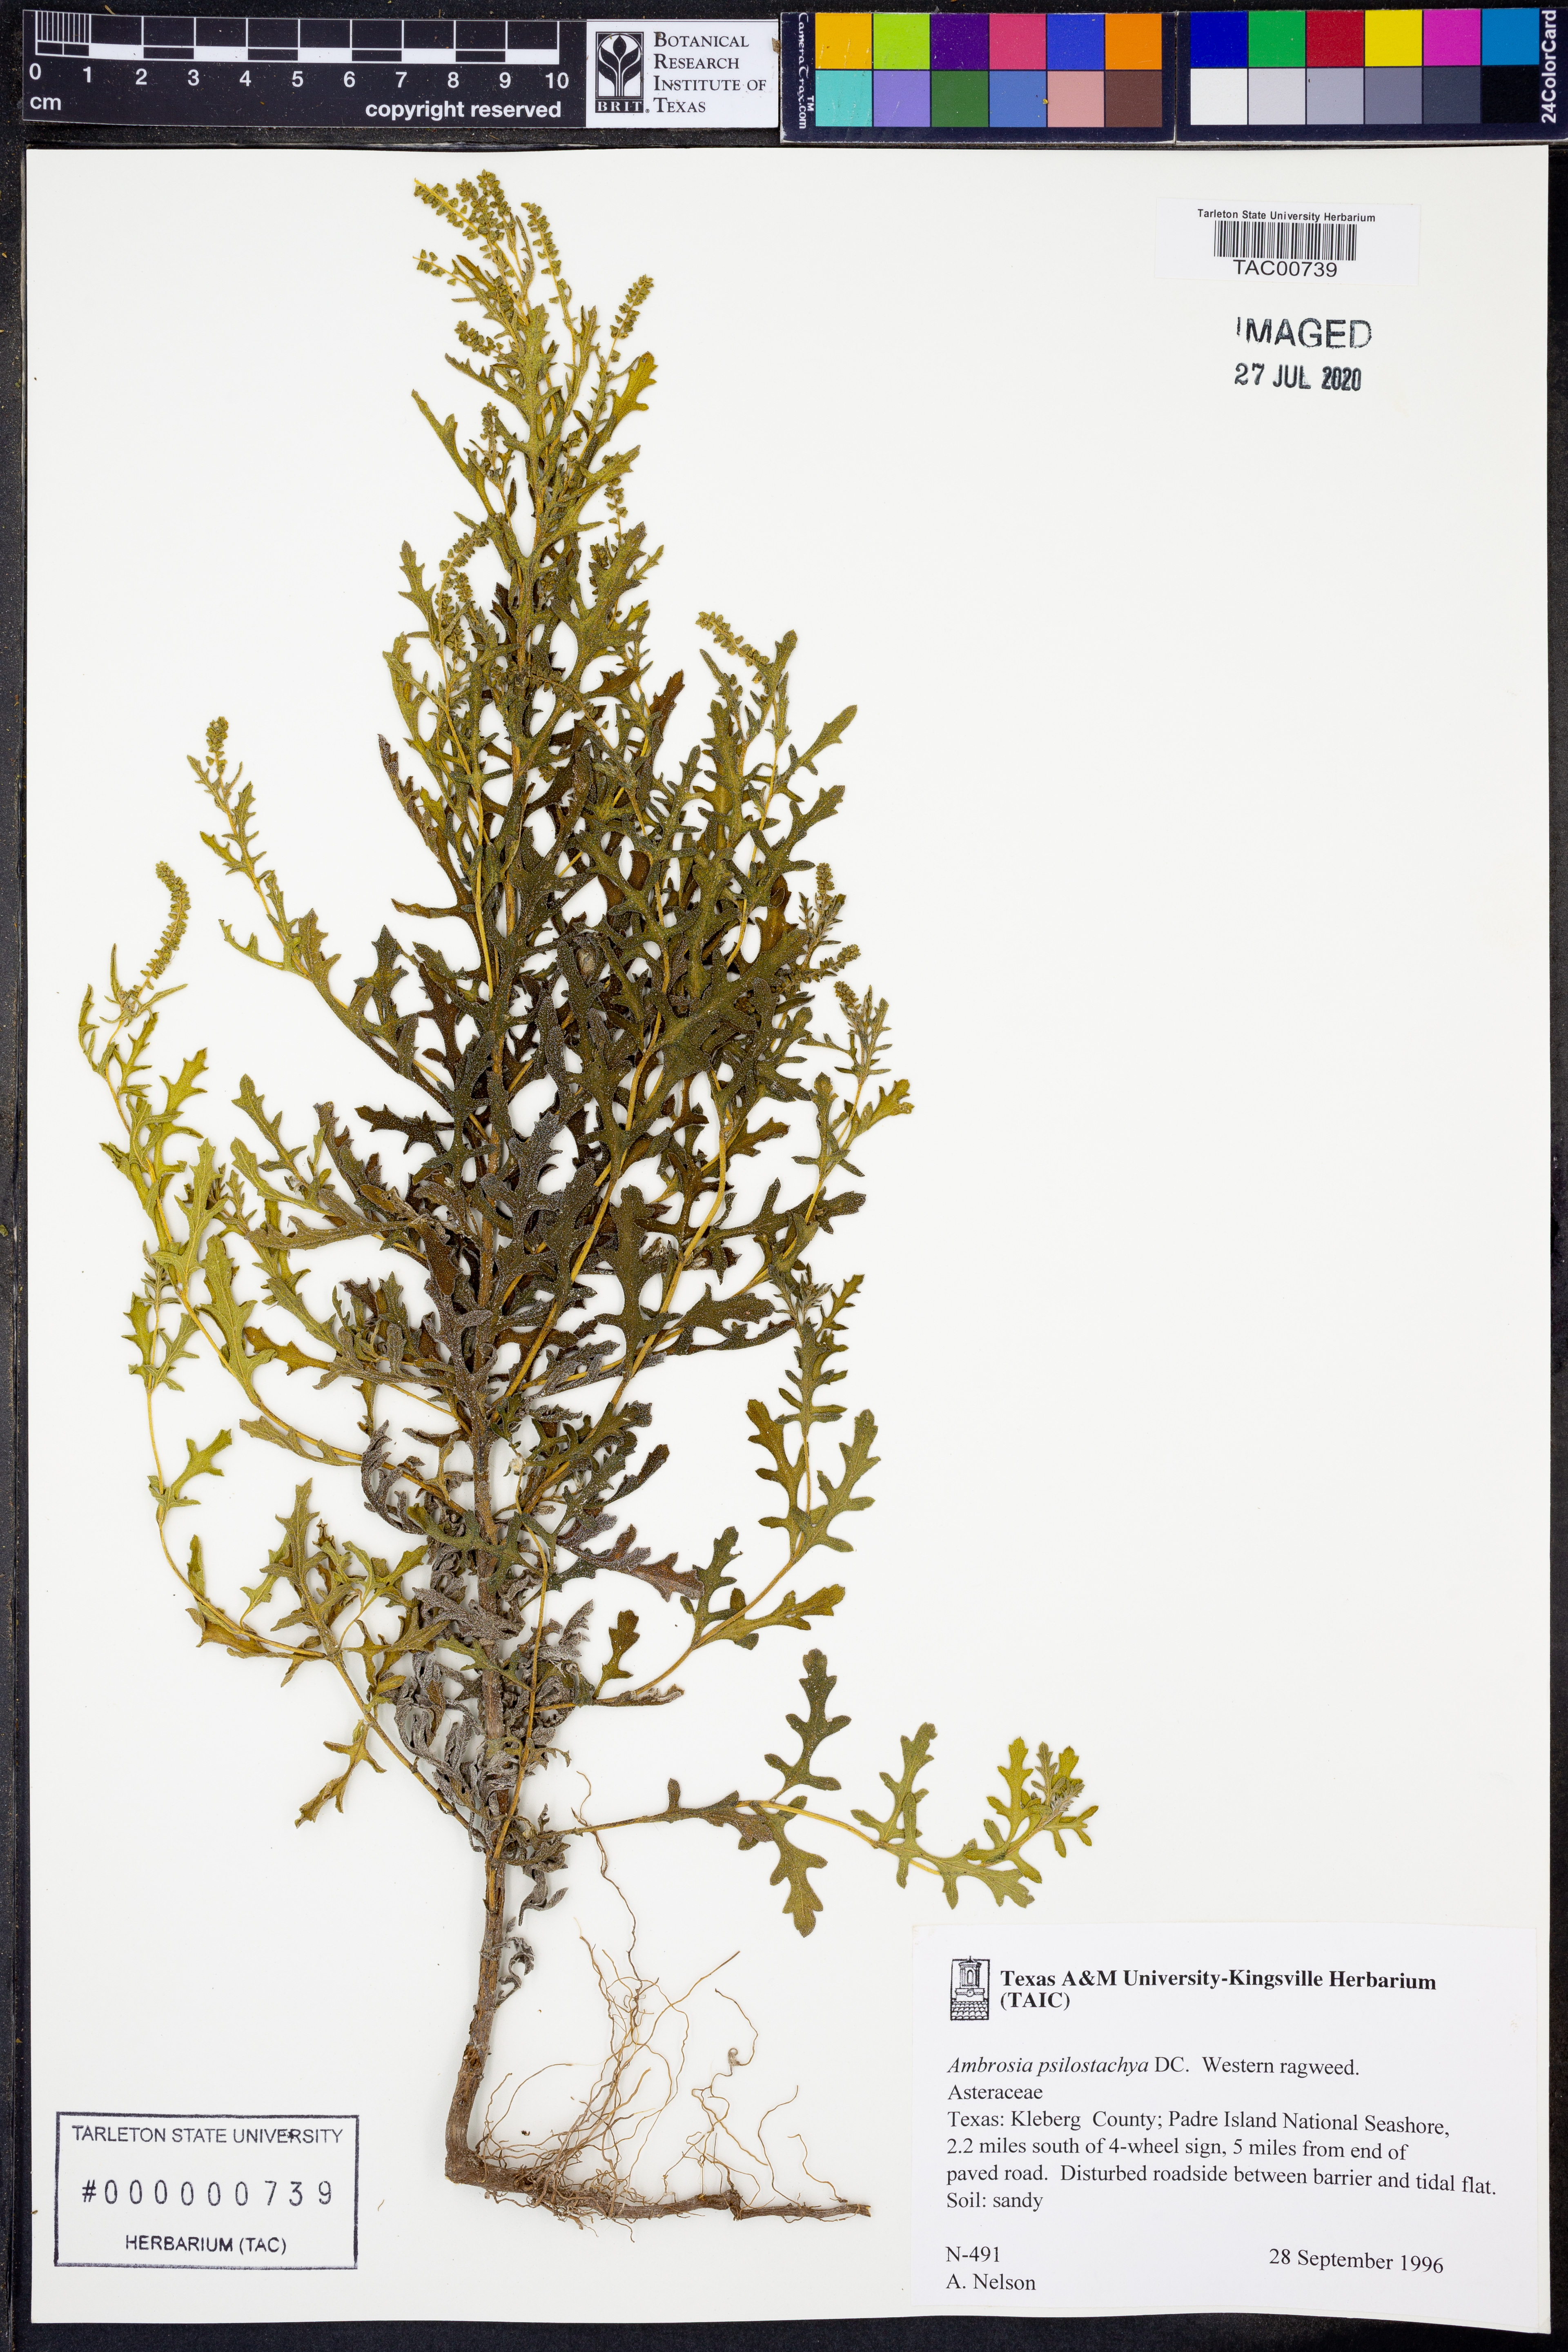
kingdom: Plantae
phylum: Tracheophyta
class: Magnoliopsida
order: Asterales
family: Asteraceae
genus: Ambrosia
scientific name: Ambrosia psilostachya
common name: Perennial ragweed
